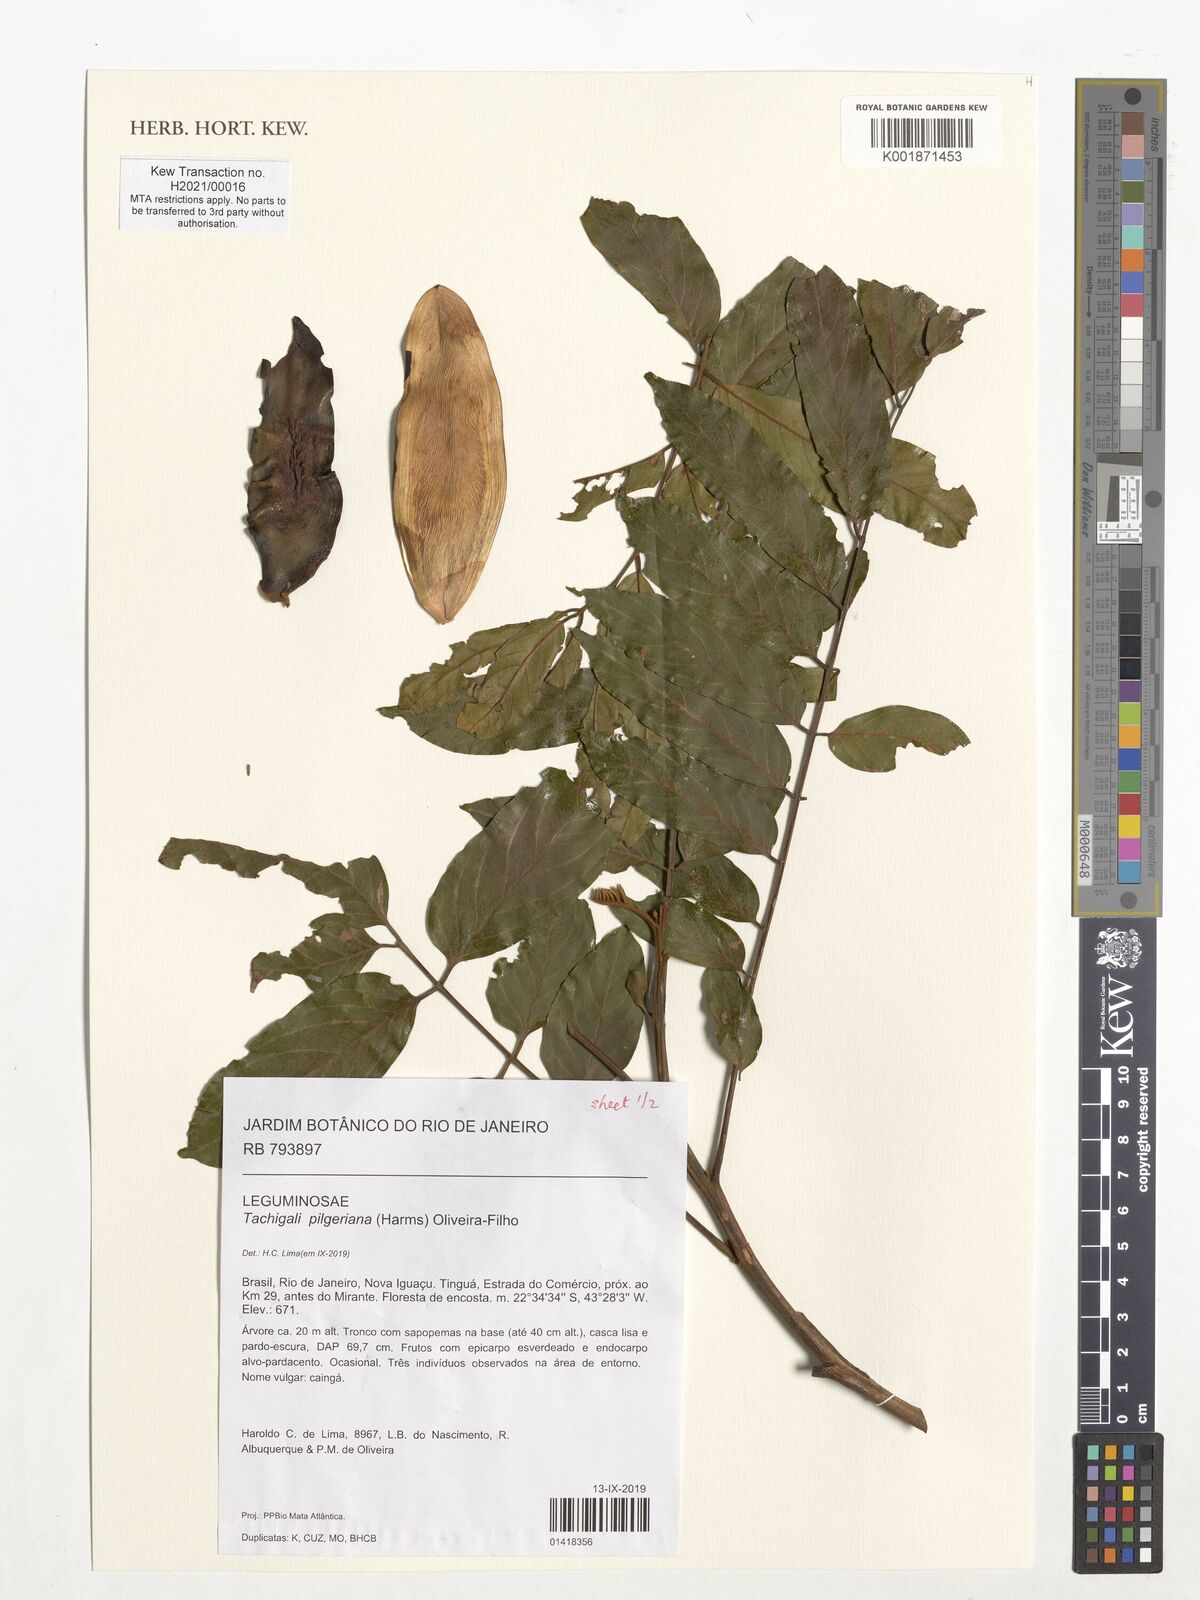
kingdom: Plantae
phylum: Tracheophyta
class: Magnoliopsida
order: Fabales
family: Fabaceae
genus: Tachigali
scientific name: Tachigali pilgeriana
